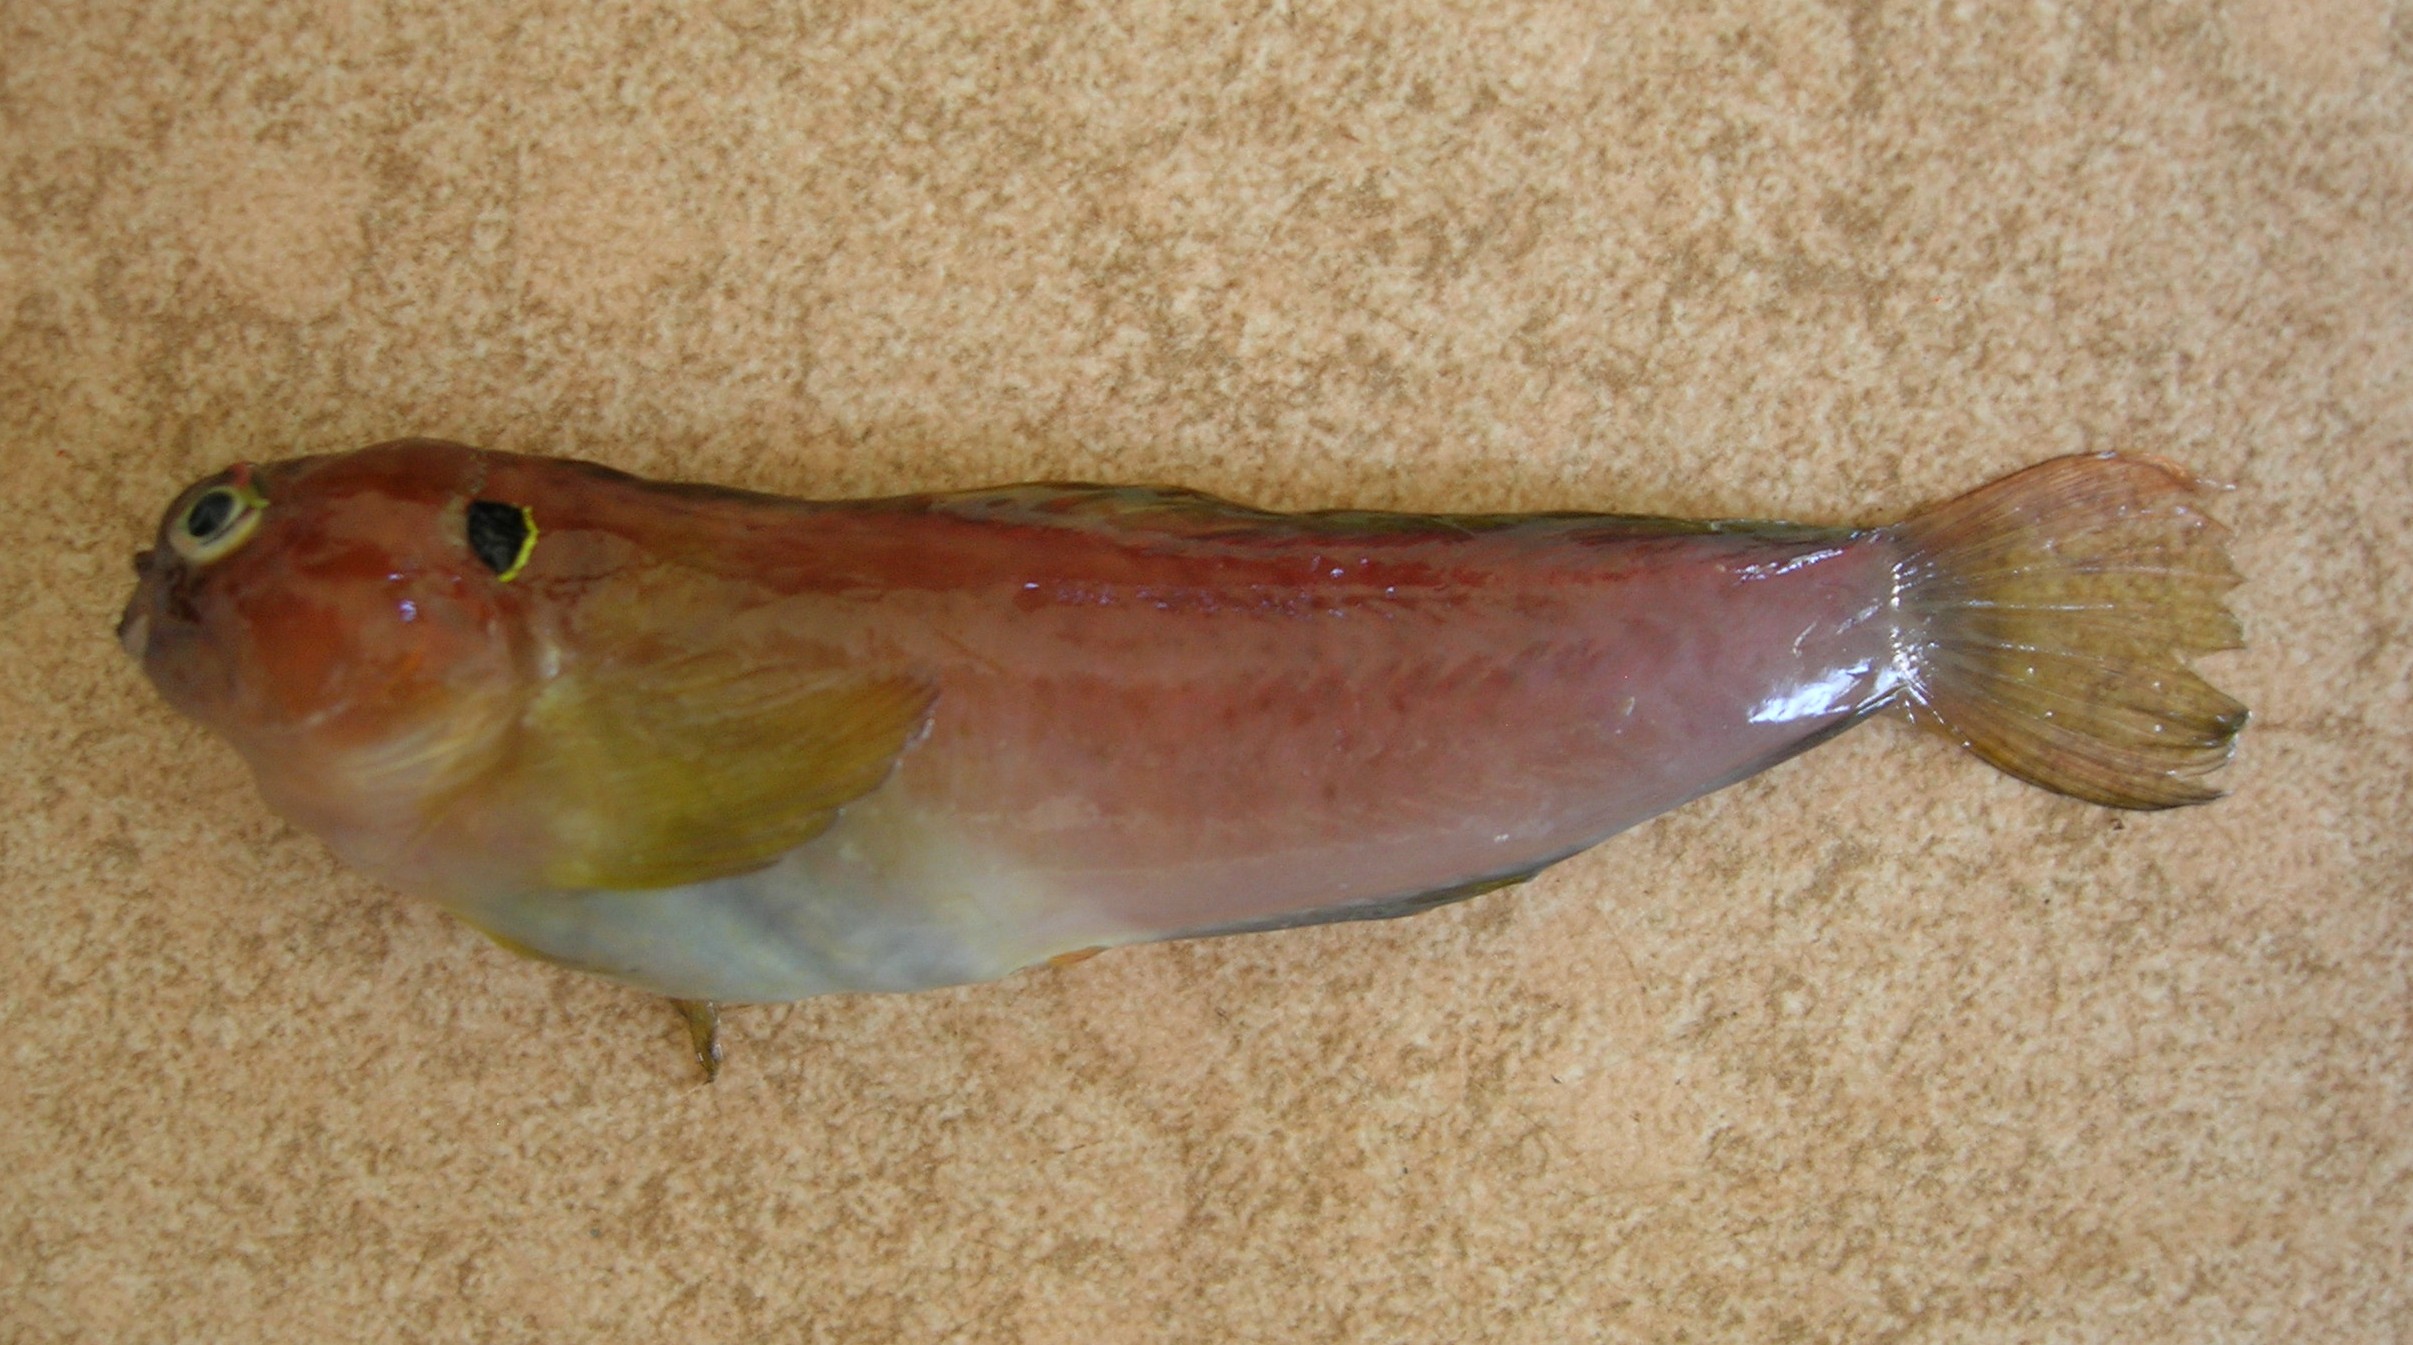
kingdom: Animalia
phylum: Chordata
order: Perciformes
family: Blenniidae
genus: Cirripectes
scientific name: Cirripectes auritus
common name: Eared blenny
